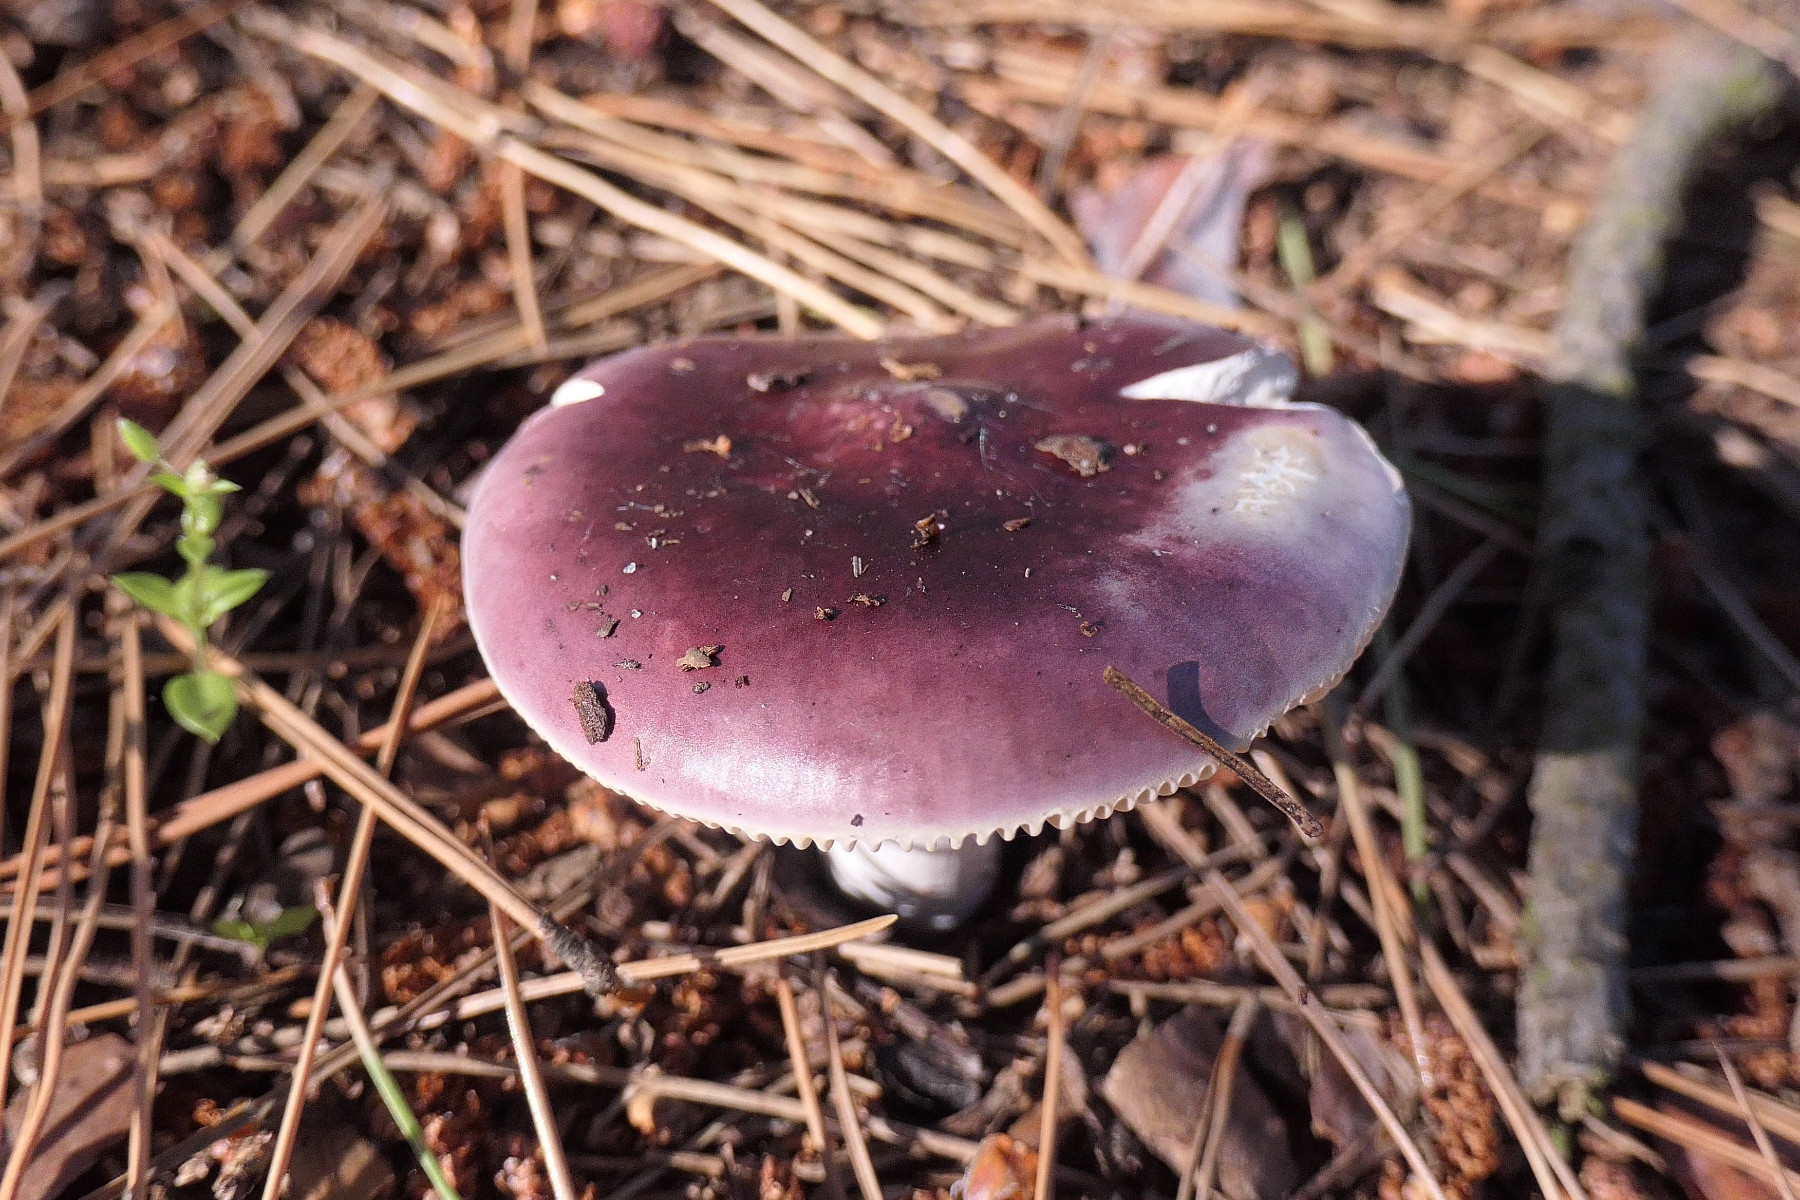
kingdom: Fungi
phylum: Basidiomycota
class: Agaricomycetes
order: Russulales
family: Russulaceae
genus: Russula
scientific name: Russula cessans
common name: fyrre-skørhat
